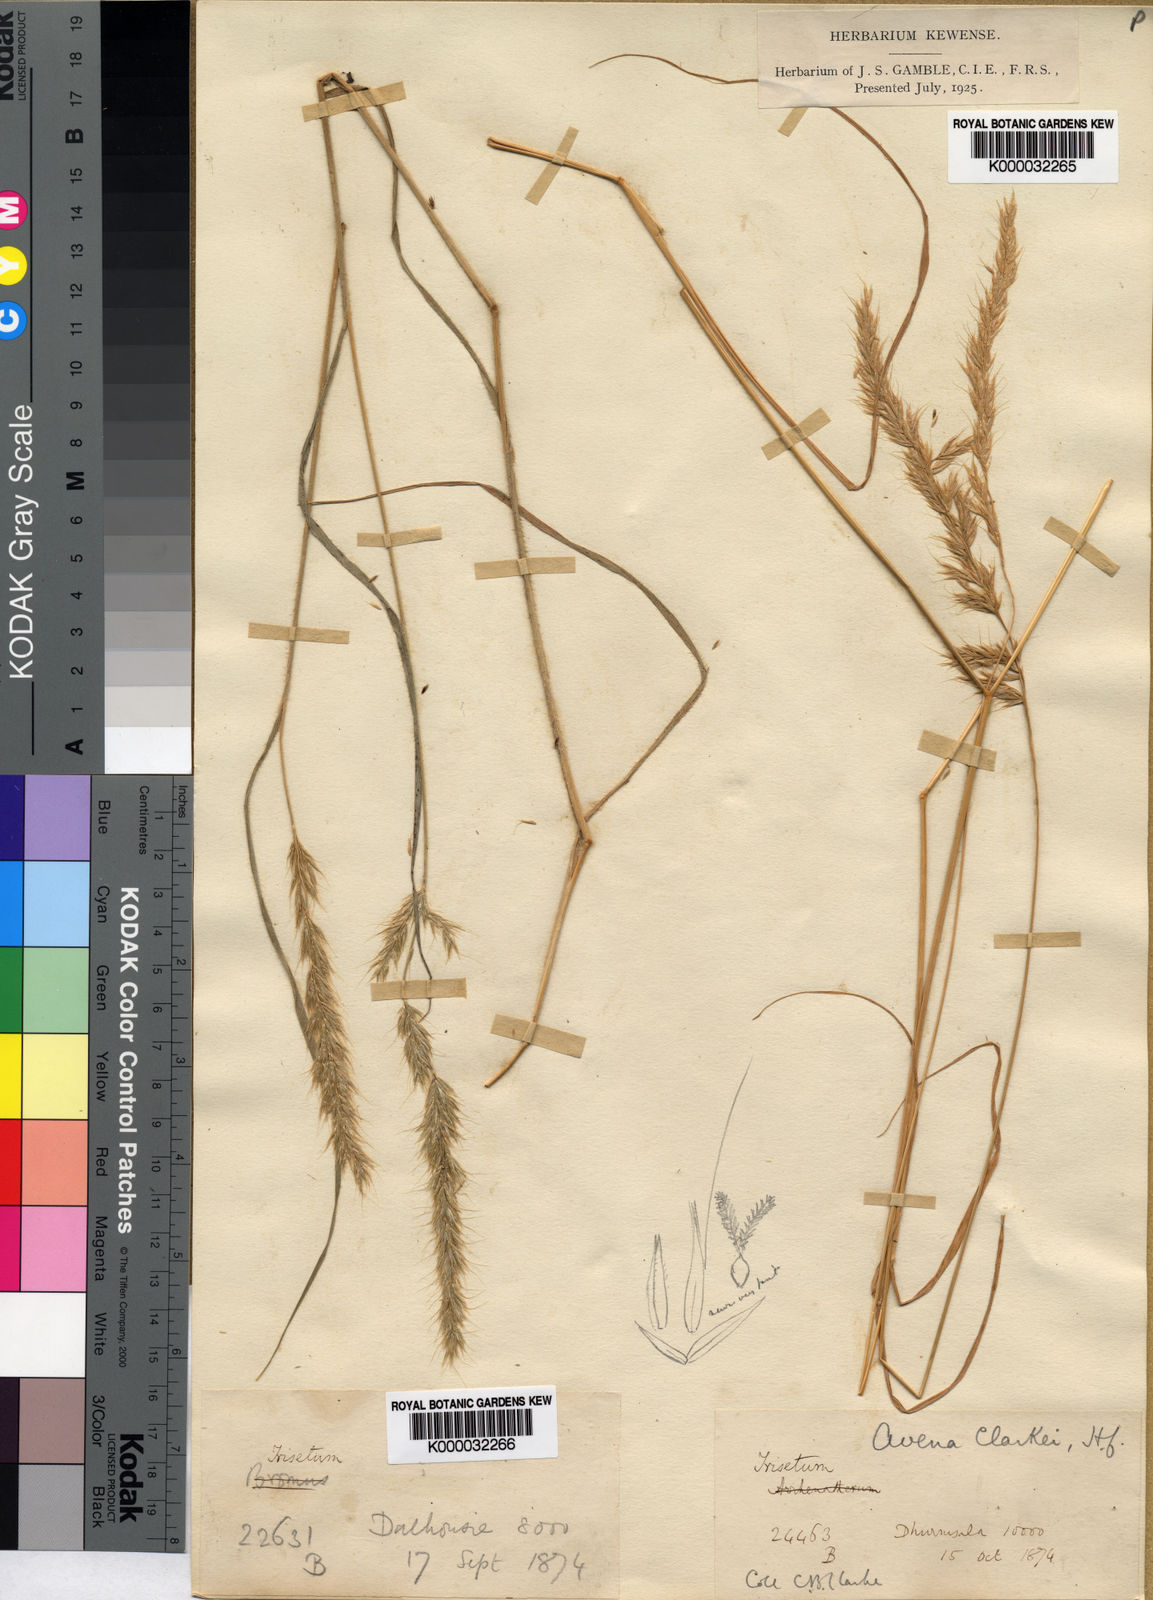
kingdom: Plantae
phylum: Tracheophyta
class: Liliopsida
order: Poales
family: Poaceae
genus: Trisetum
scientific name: Trisetum clarkei
